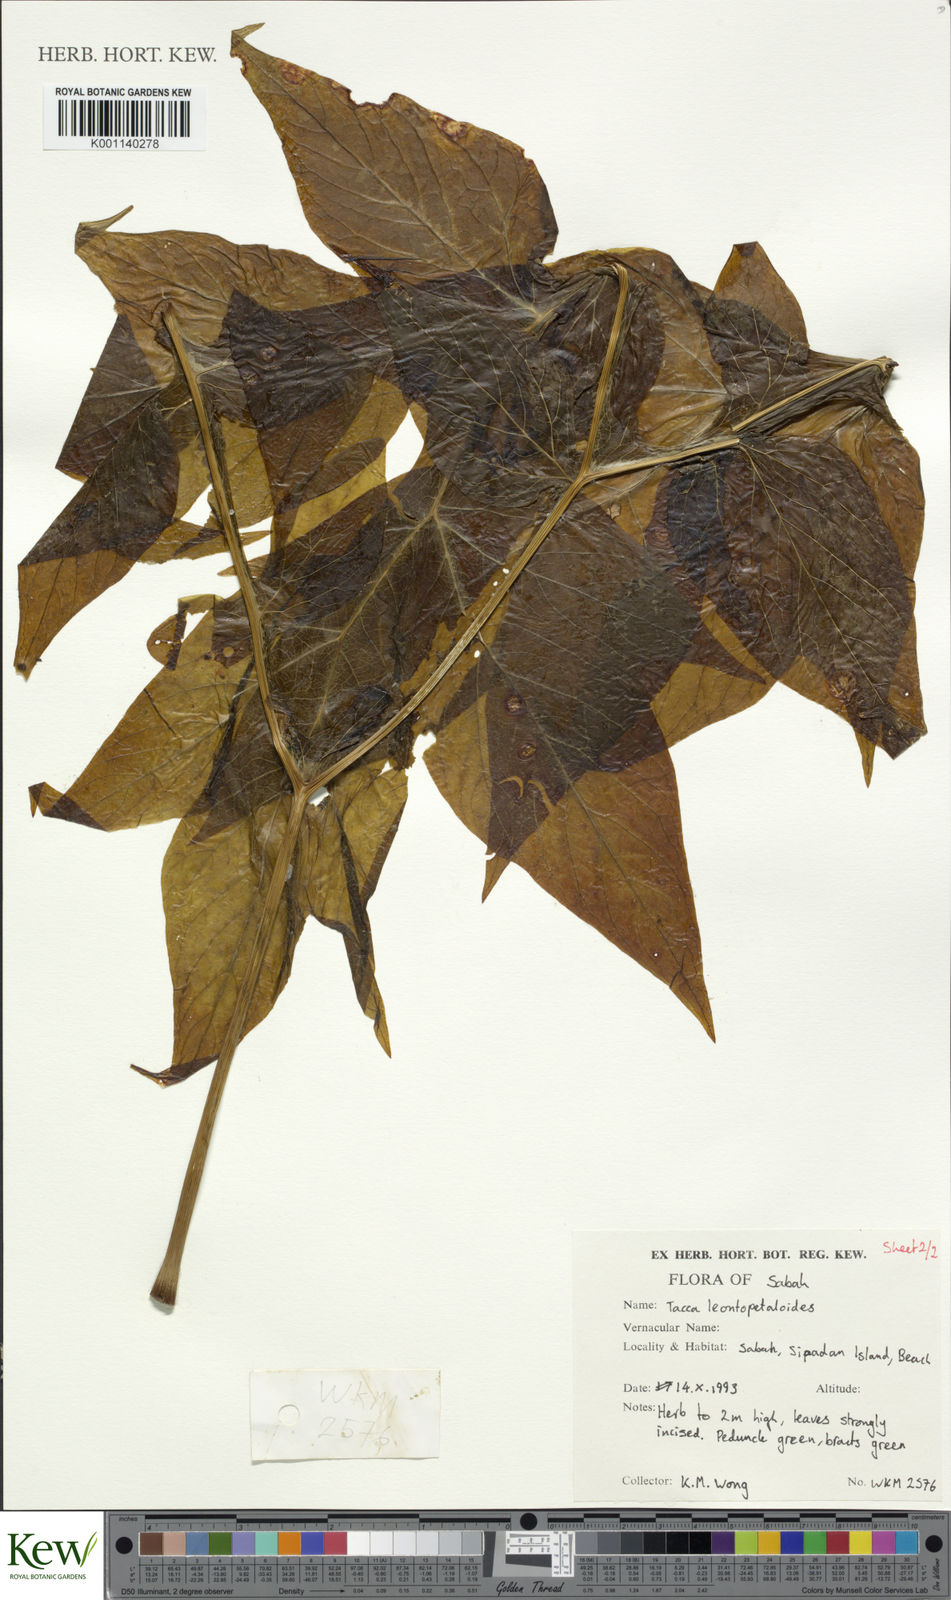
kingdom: Plantae
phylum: Tracheophyta
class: Liliopsida
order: Dioscoreales
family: Dioscoreaceae
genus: Tacca
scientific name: Tacca leontopetaloides
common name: Arrowroot
